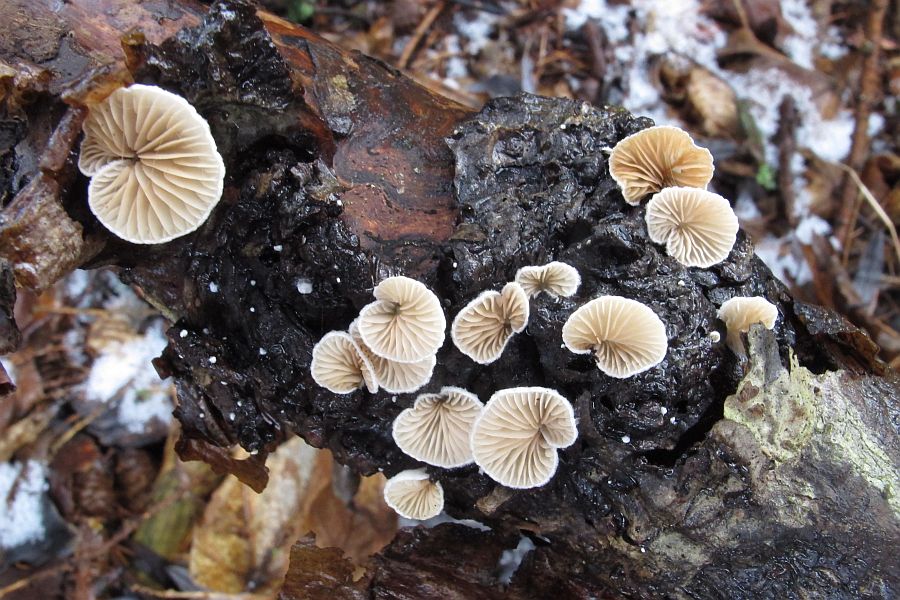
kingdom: Fungi
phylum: Basidiomycota
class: Agaricomycetes
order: Agaricales
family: Crepidotaceae
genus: Crepidotus
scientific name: Crepidotus cesatii
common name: almindelig muslingesvamp
